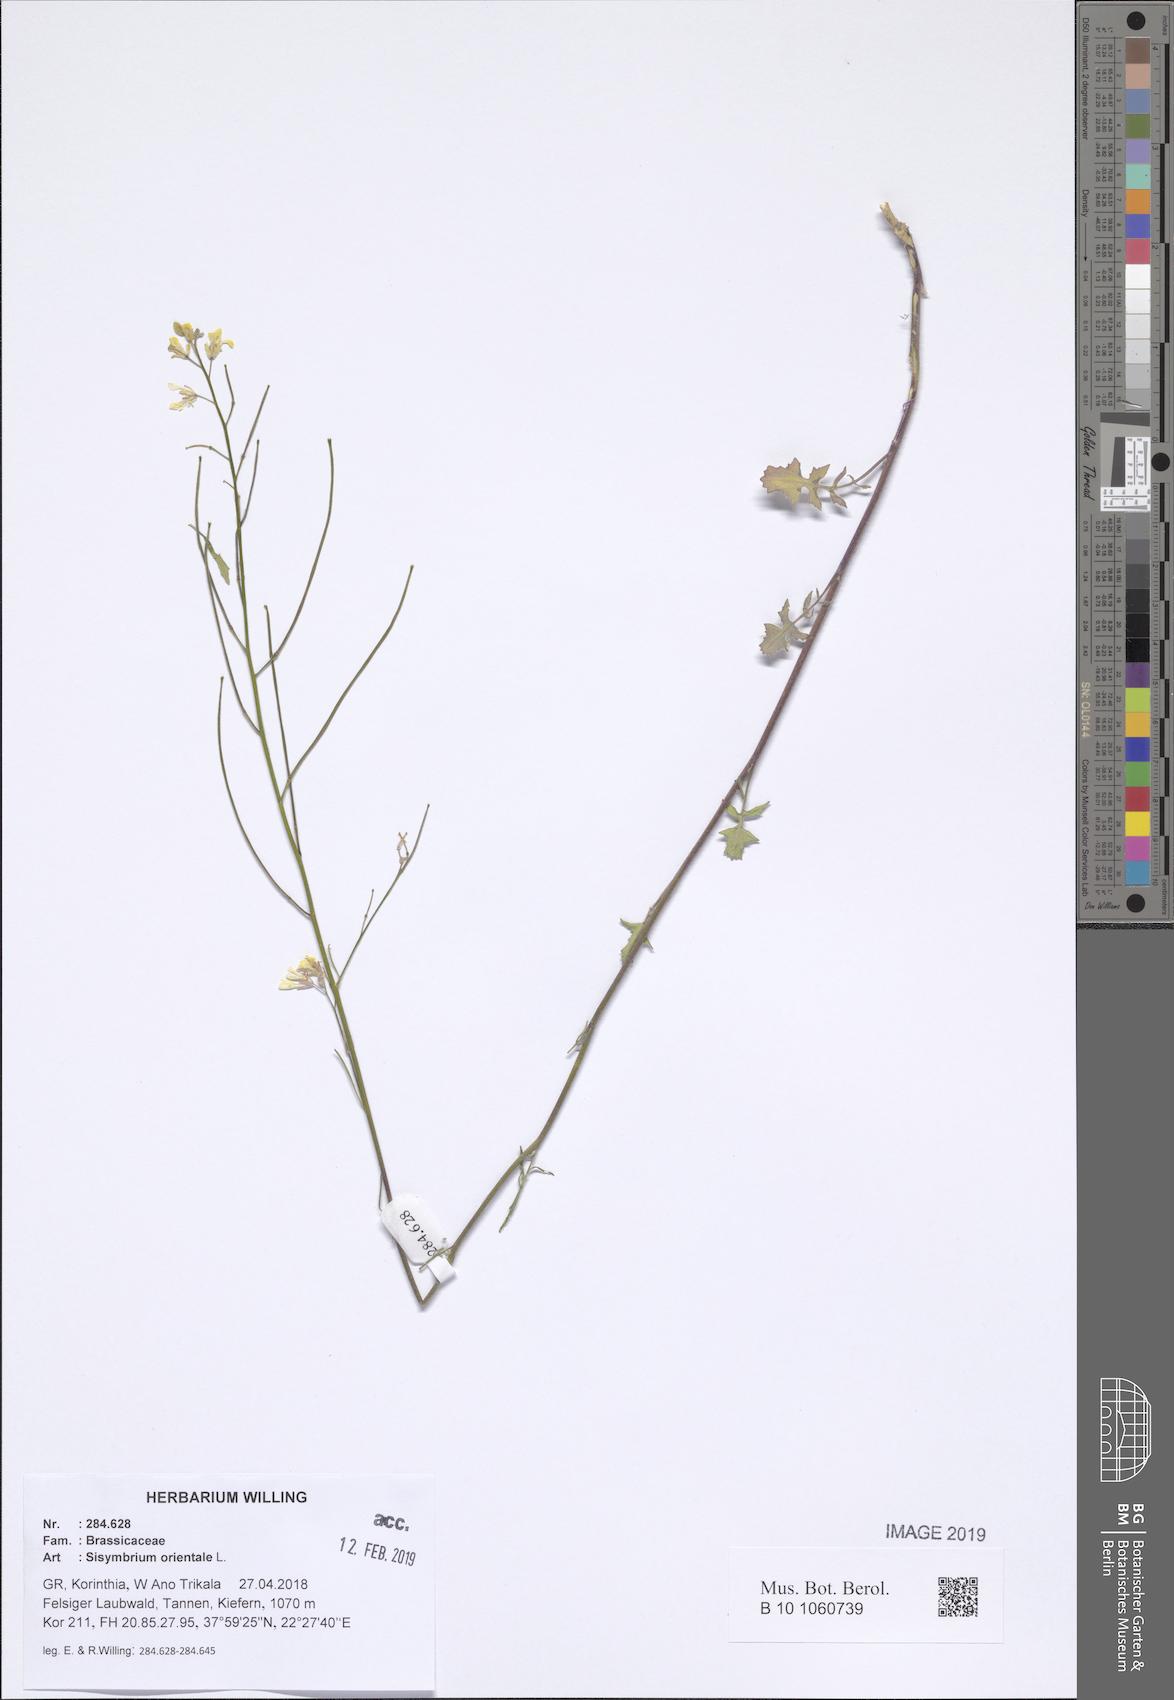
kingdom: Plantae
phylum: Tracheophyta
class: Magnoliopsida
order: Brassicales
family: Brassicaceae
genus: Sisymbrium
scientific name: Sisymbrium orientale
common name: Eastern rocket
